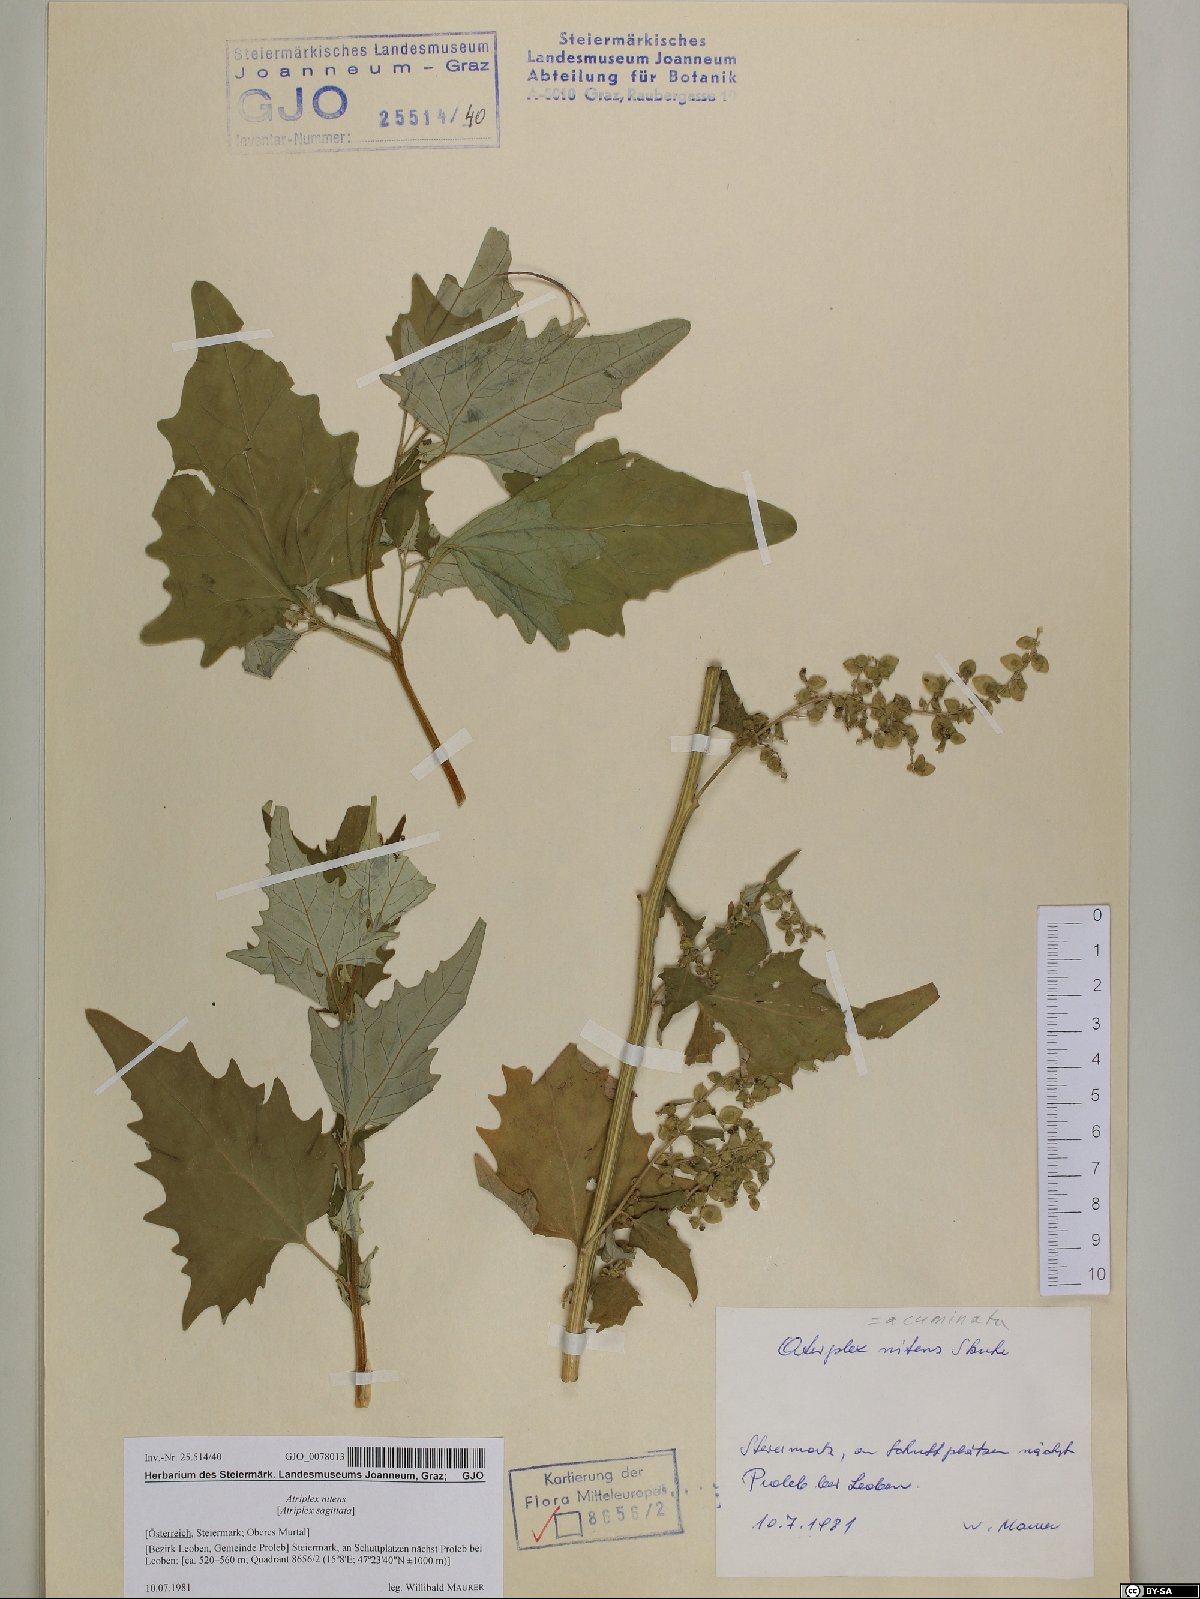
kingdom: Plantae
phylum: Tracheophyta
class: Magnoliopsida
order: Caryophyllales
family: Amaranthaceae
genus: Atriplex
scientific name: Atriplex sagittata
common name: Purple orache
